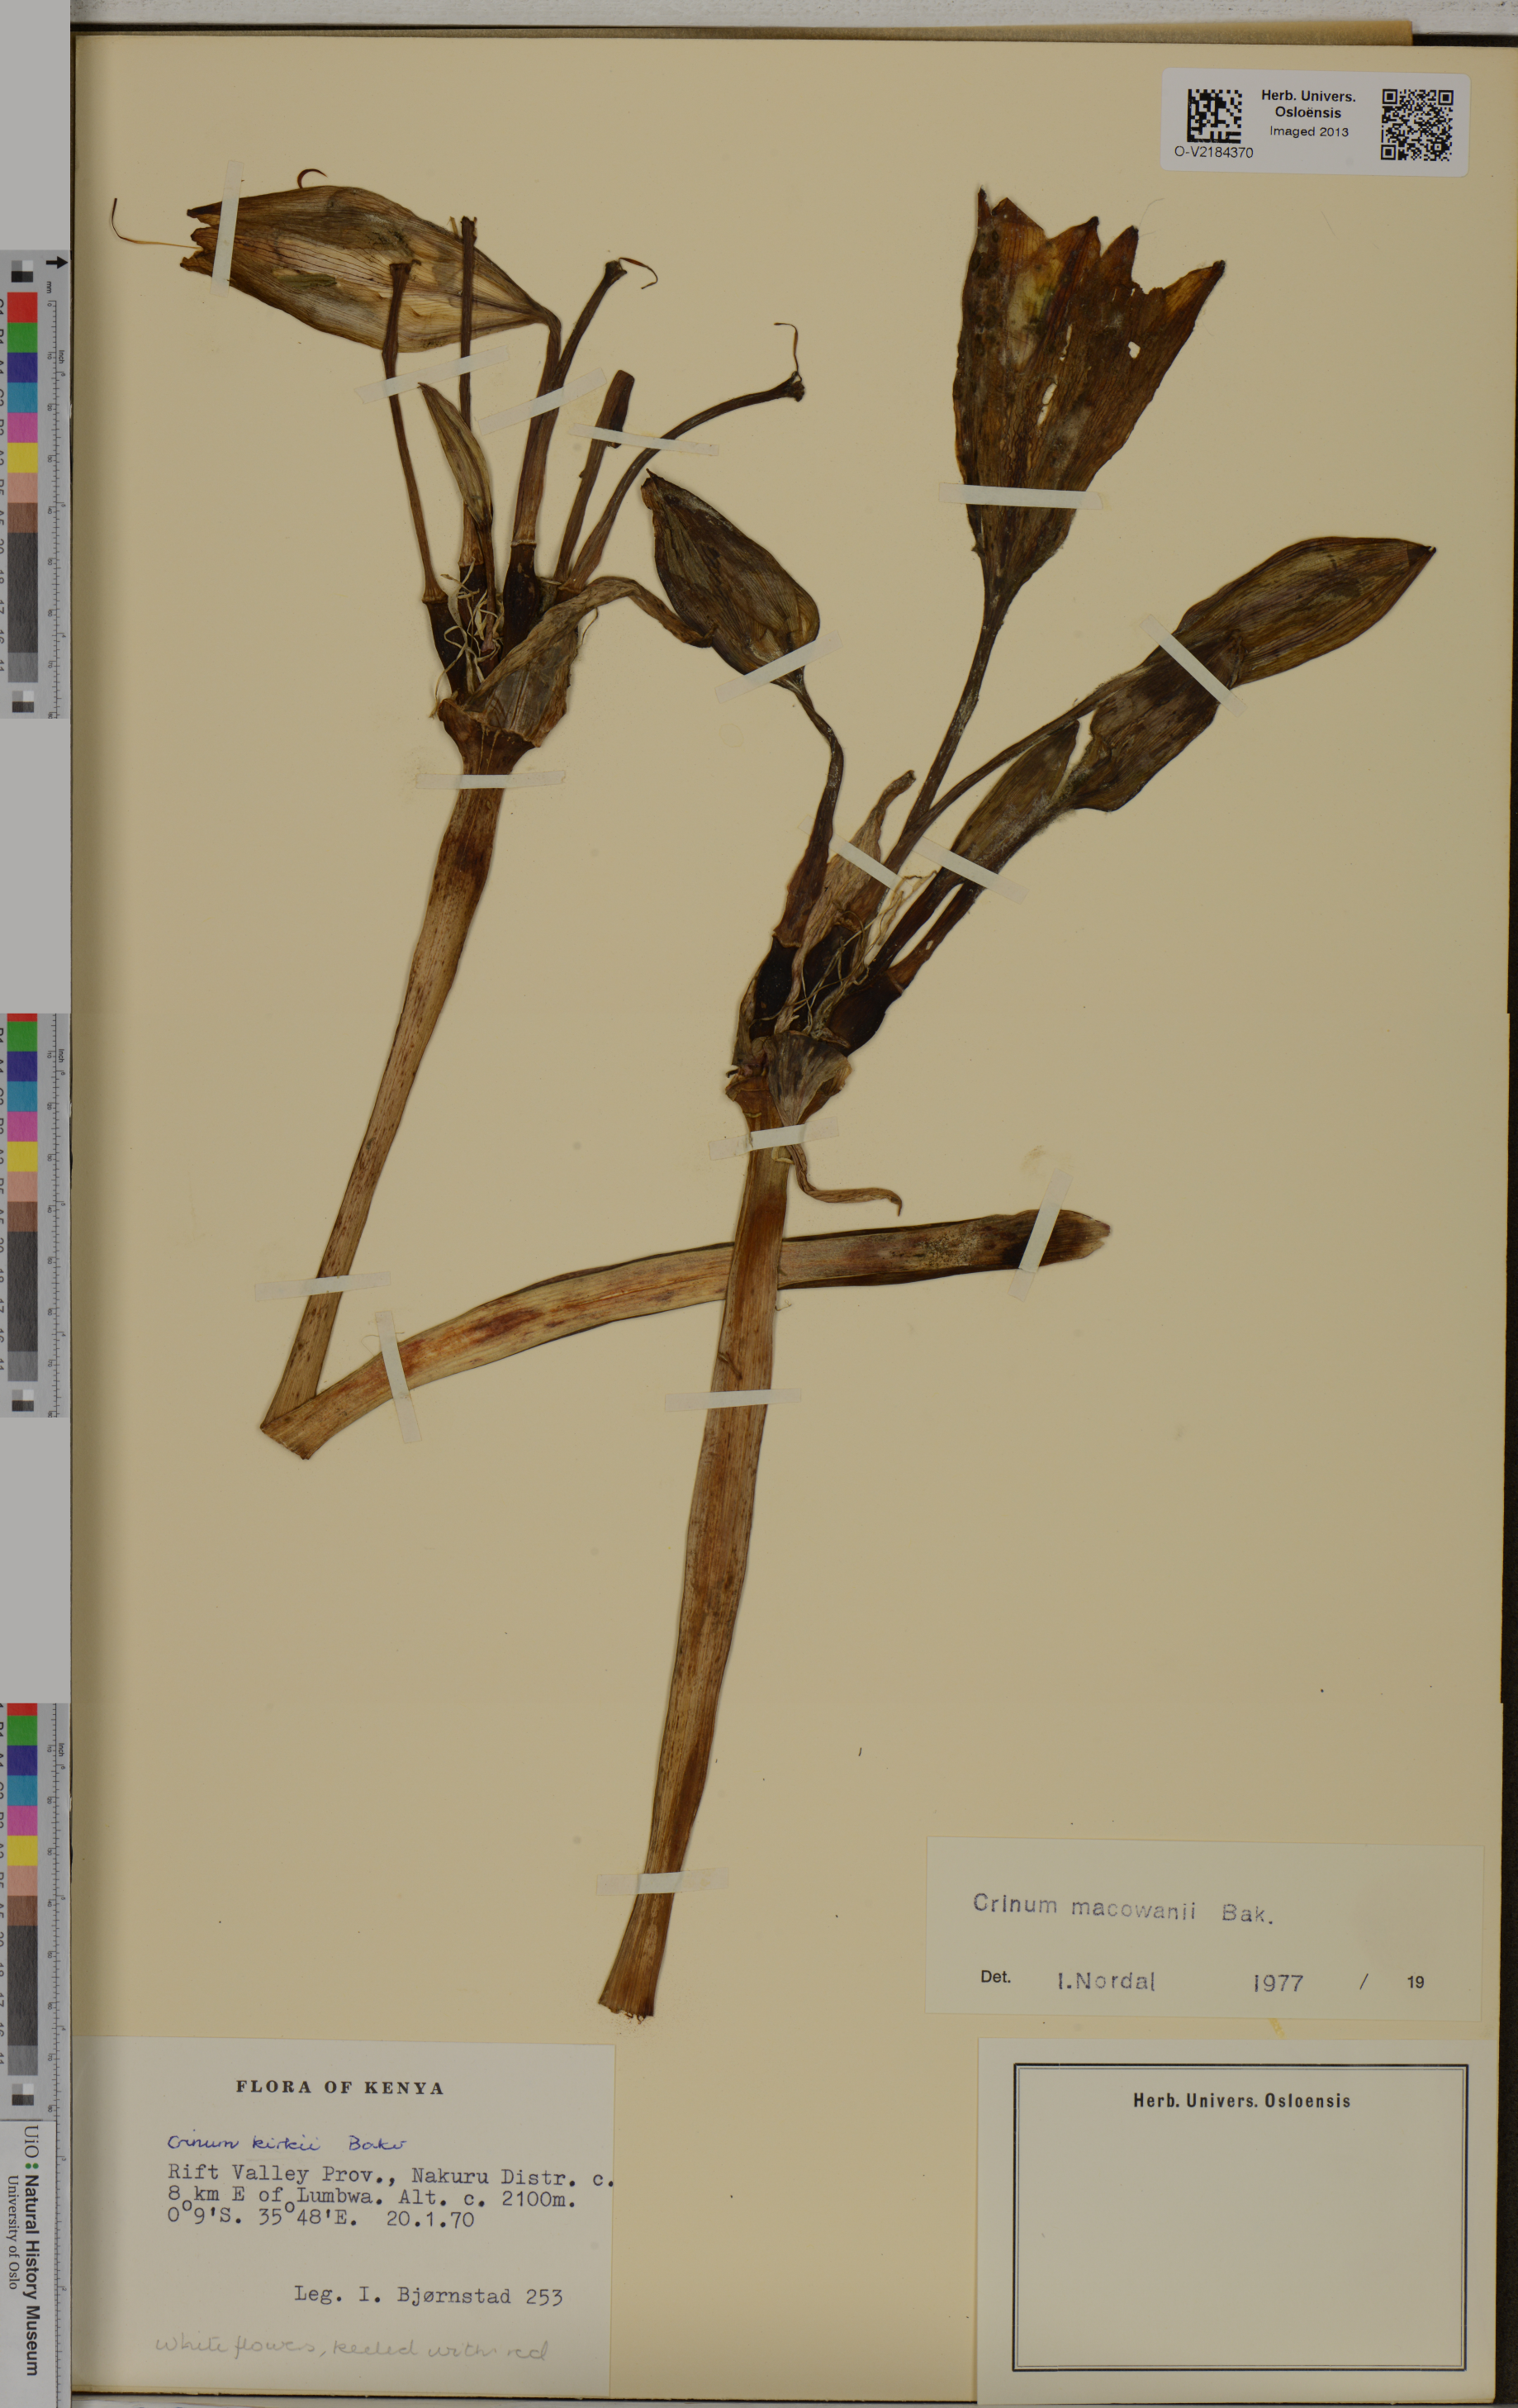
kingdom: Plantae
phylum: Tracheophyta
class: Liliopsida
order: Asparagales
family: Amaryllidaceae
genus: Crinum
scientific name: Crinum macowanii
